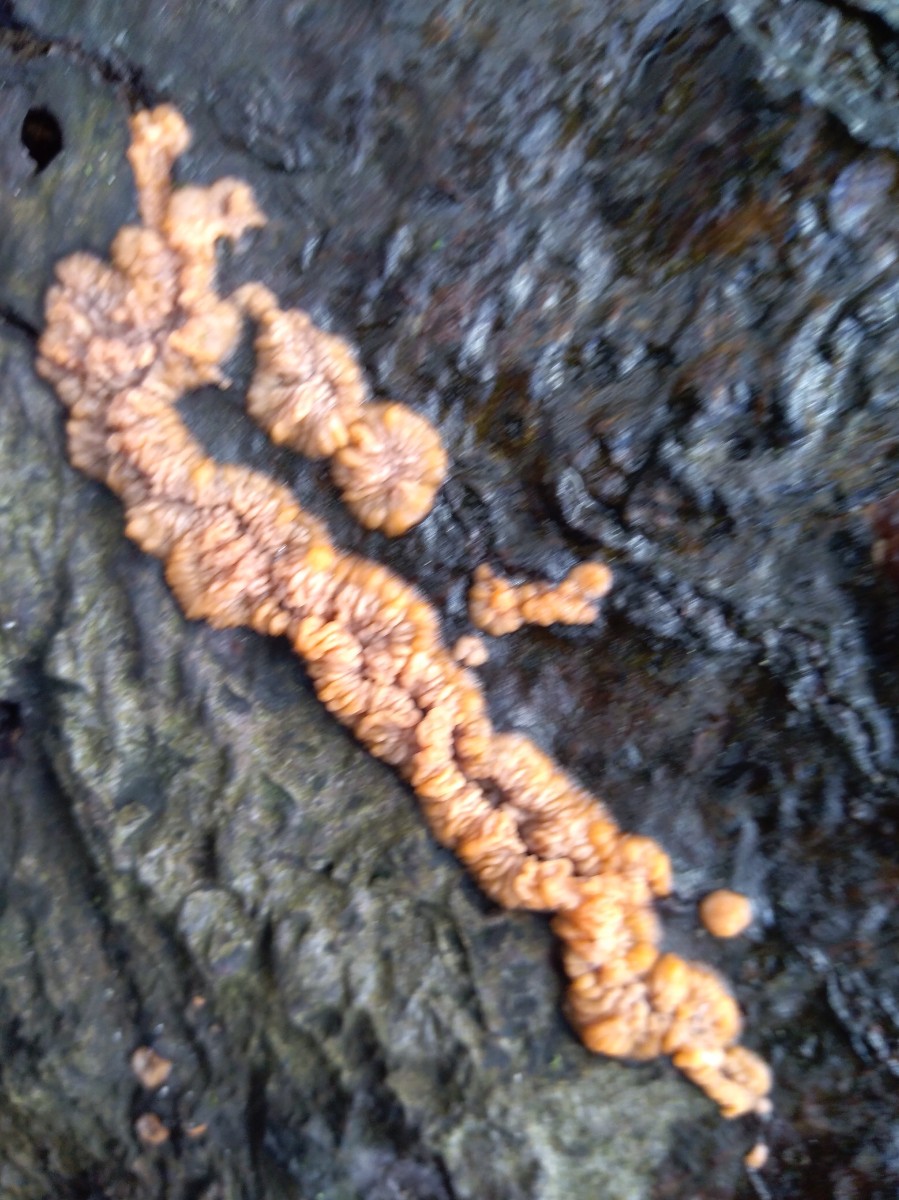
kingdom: Fungi
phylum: Basidiomycota
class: Agaricomycetes
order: Polyporales
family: Meruliaceae
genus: Phlebia
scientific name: Phlebia radiata
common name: stråle-åresvamp
